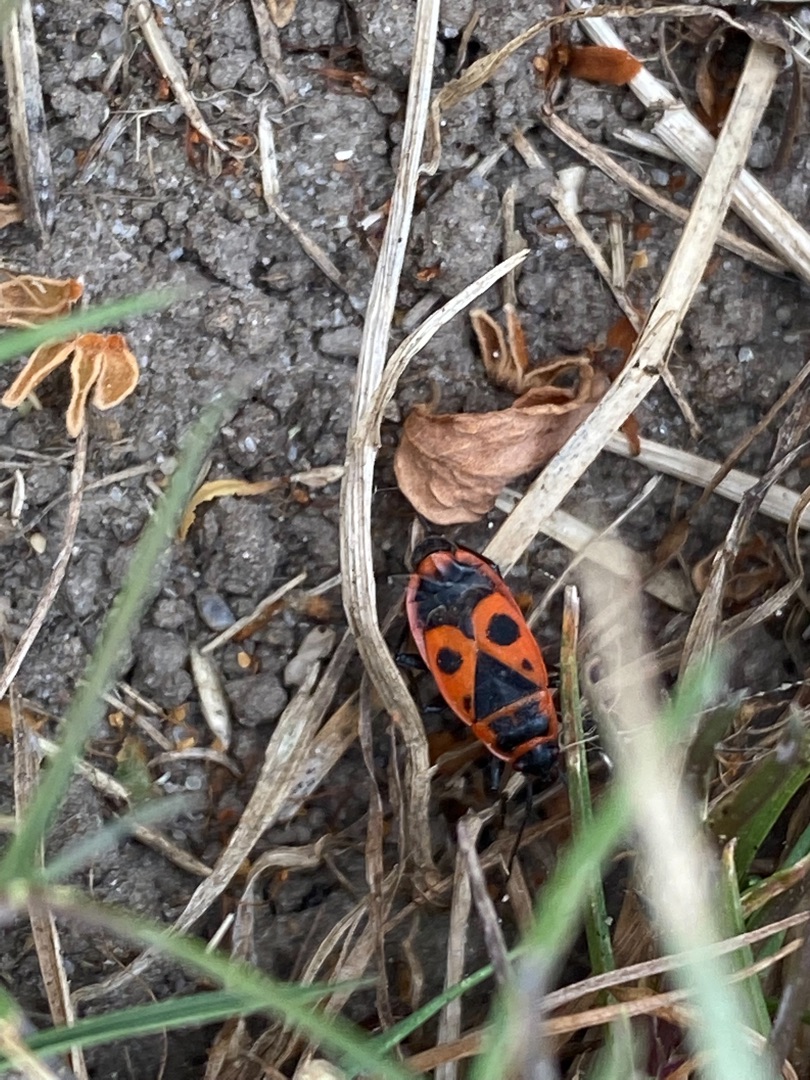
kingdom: Animalia
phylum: Arthropoda
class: Insecta
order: Hemiptera
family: Pyrrhocoridae
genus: Pyrrhocoris
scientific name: Pyrrhocoris apterus
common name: Ildtæge
